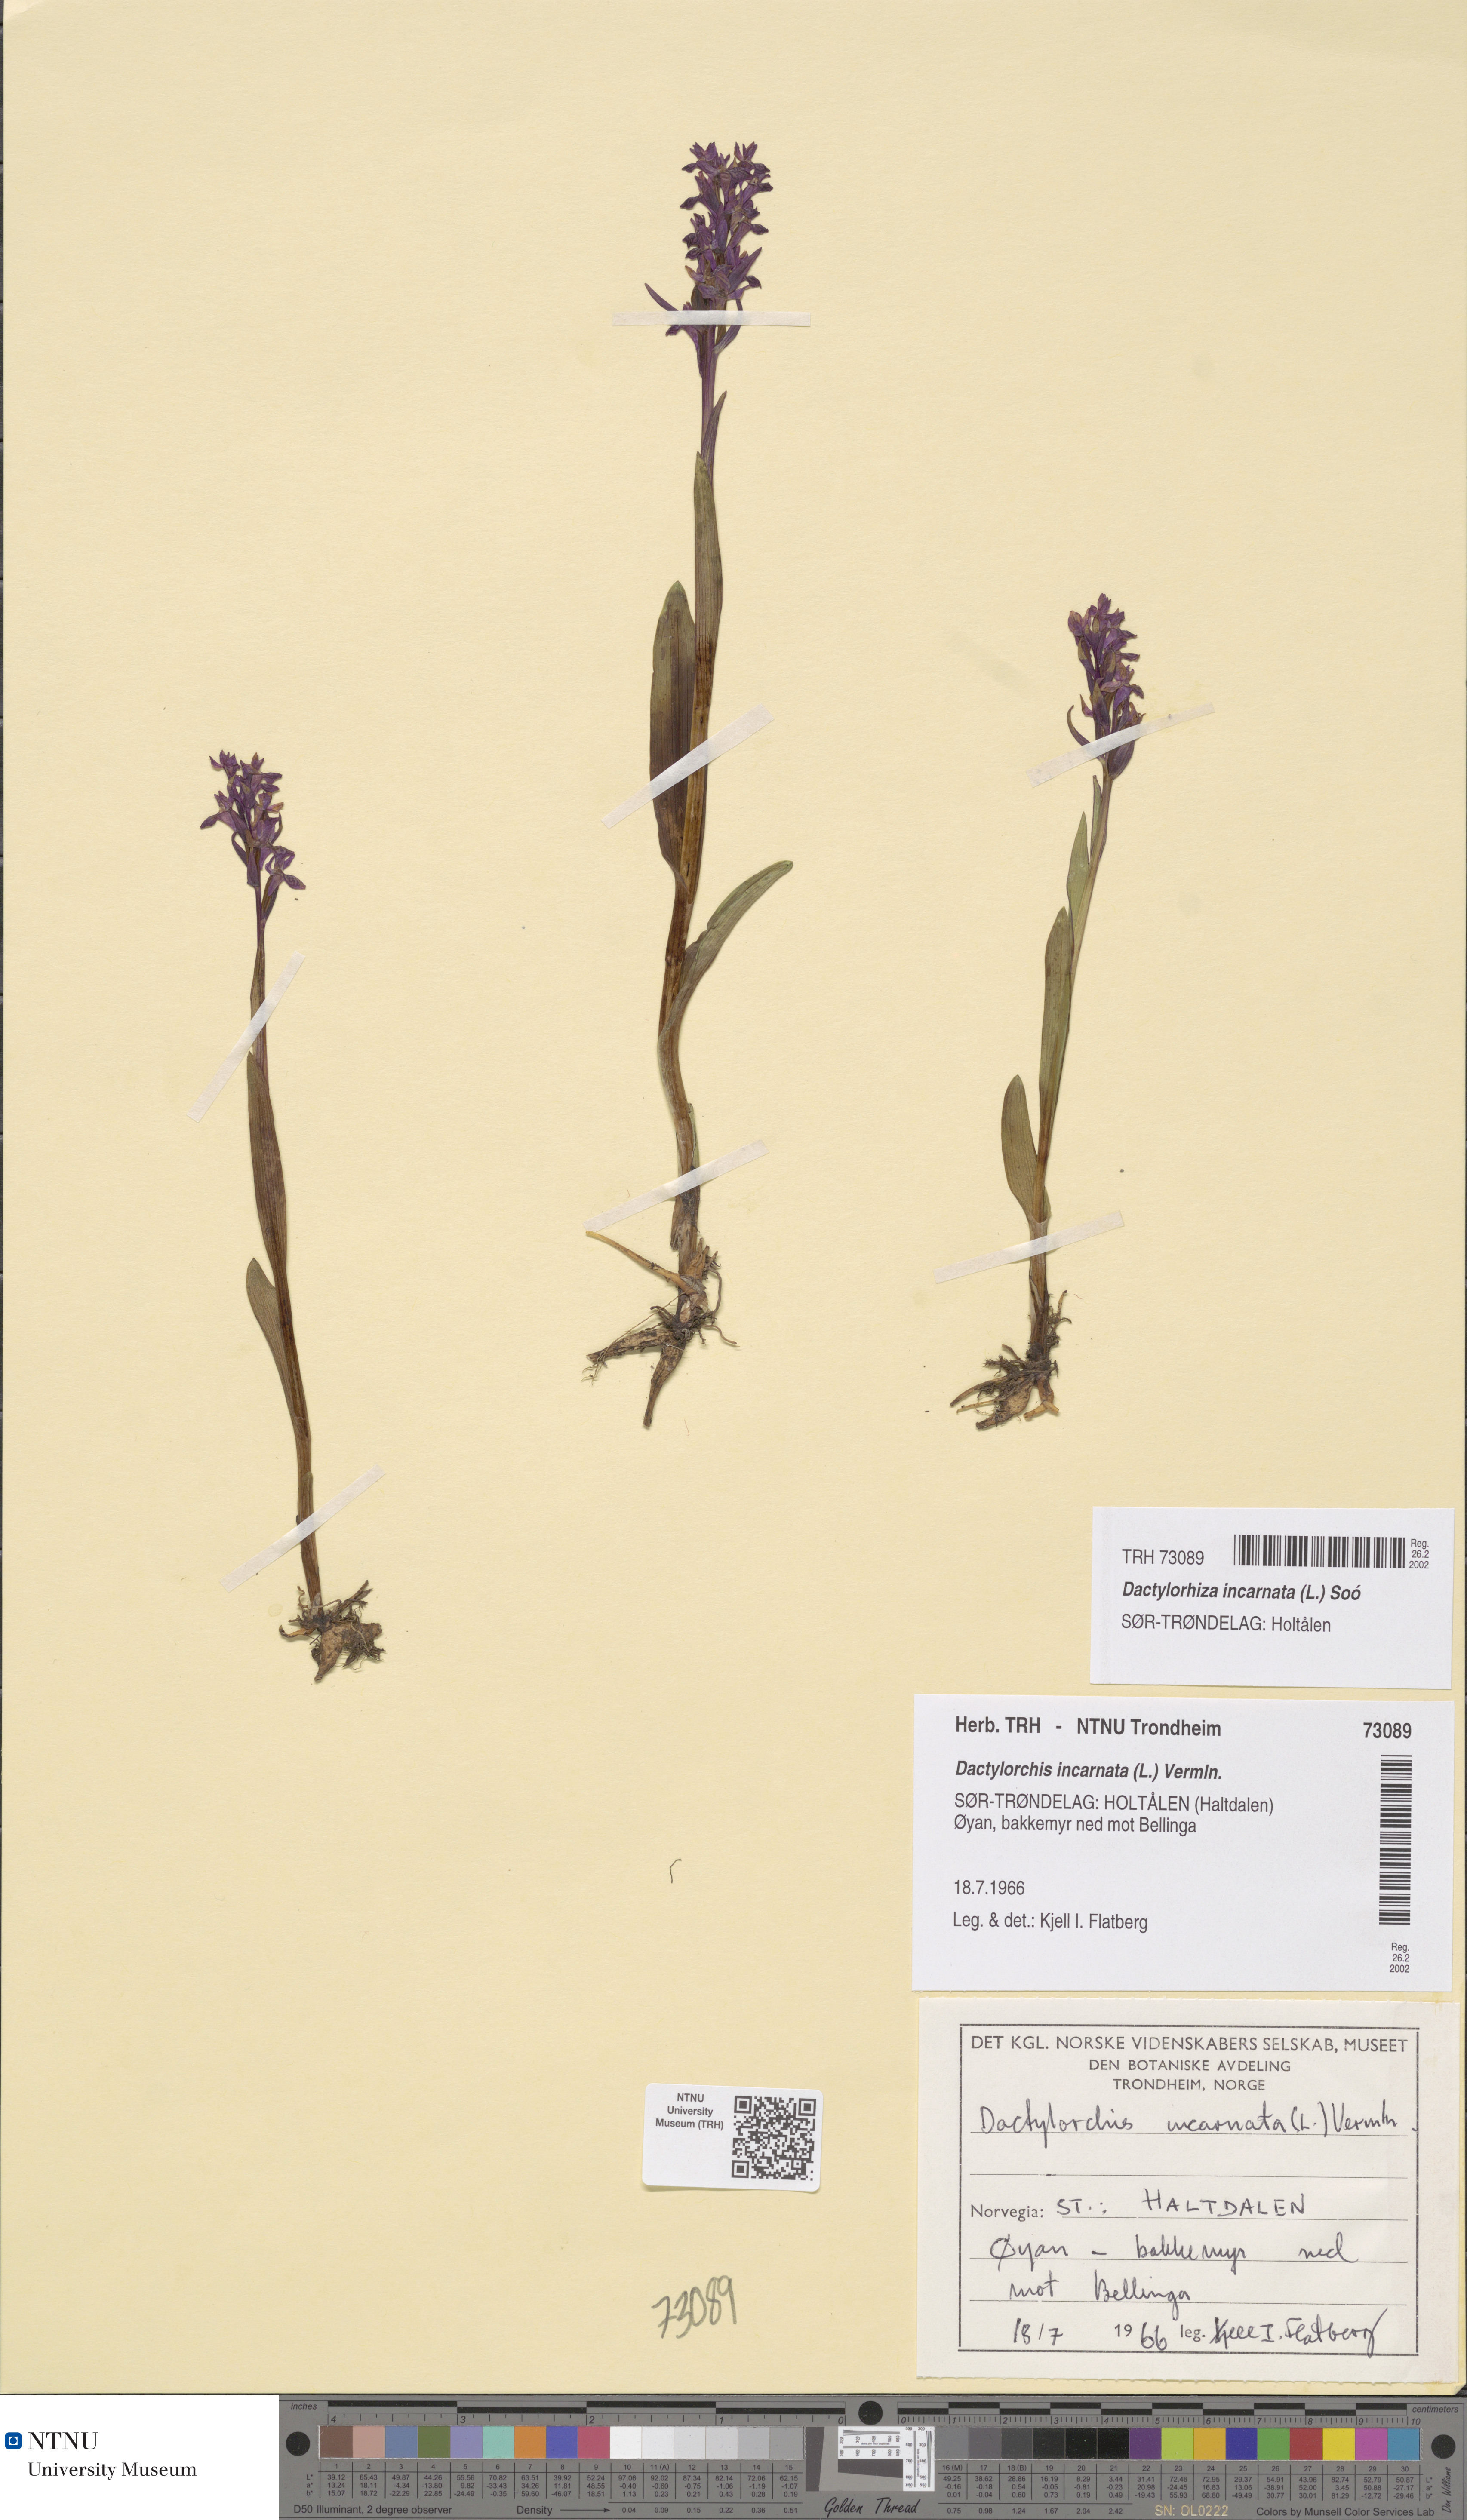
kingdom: Plantae
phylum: Tracheophyta
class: Liliopsida
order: Asparagales
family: Orchidaceae
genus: Dactylorhiza
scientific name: Dactylorhiza incarnata
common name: Early marsh-orchid
